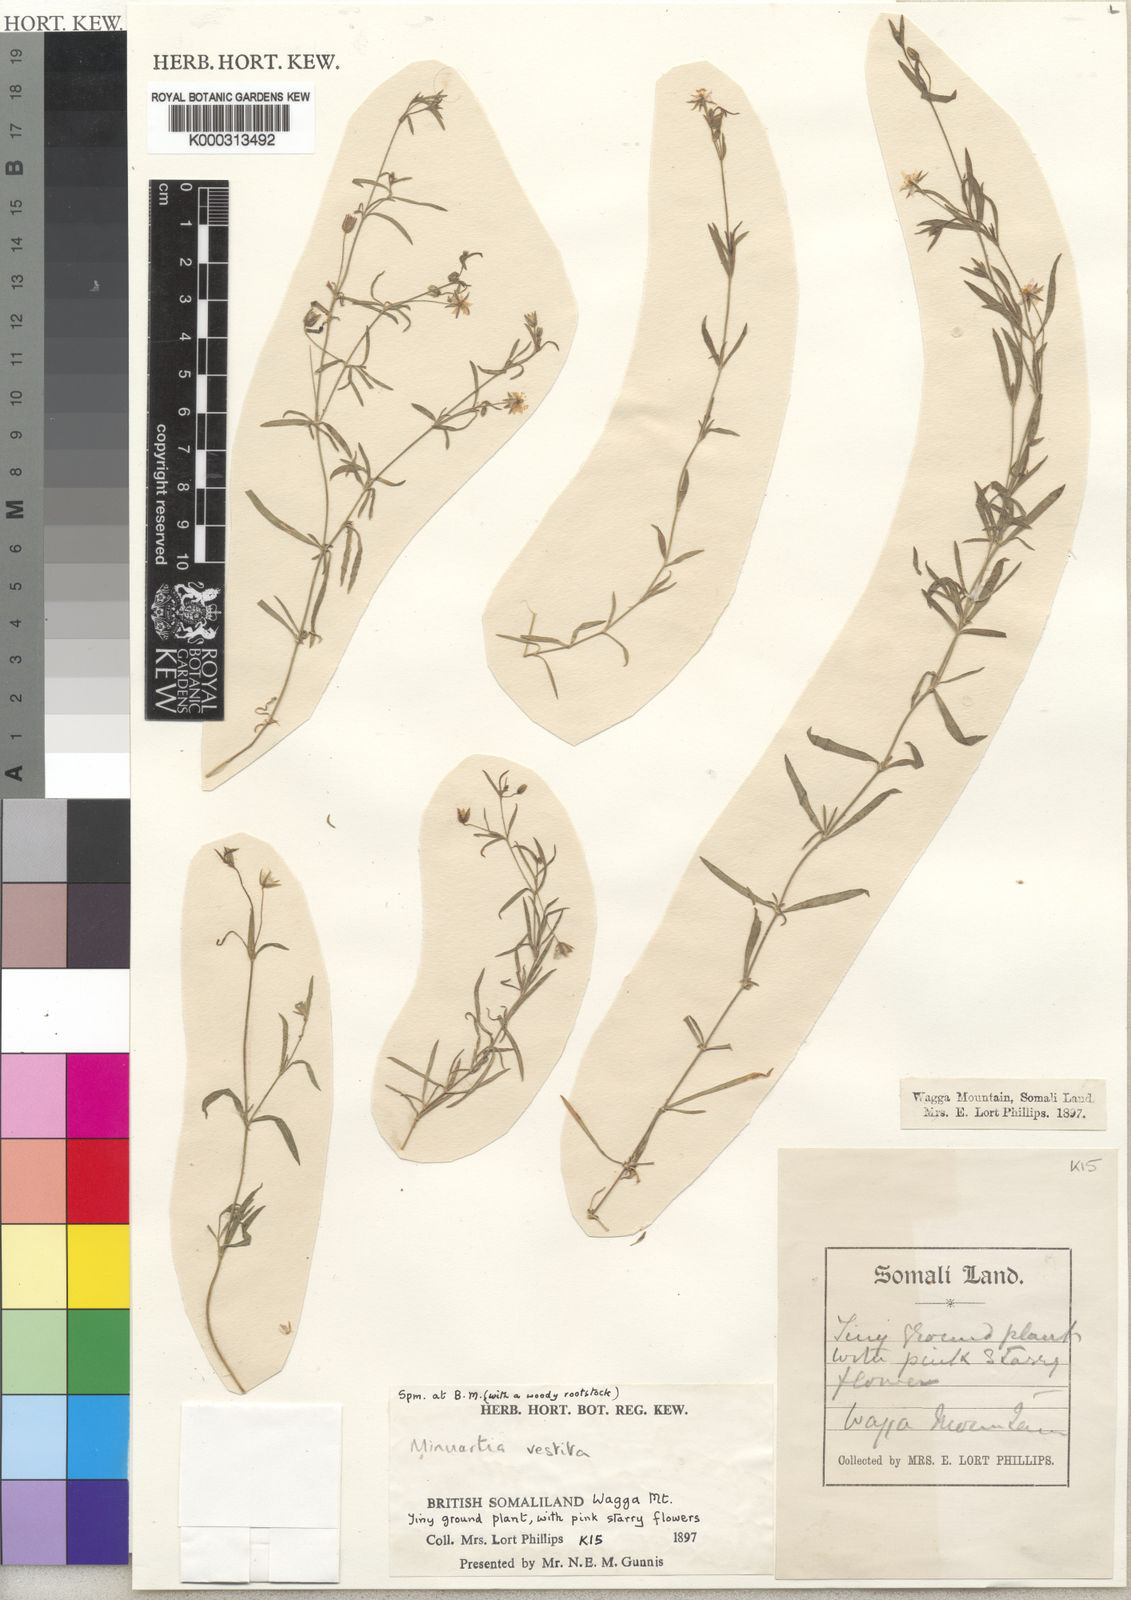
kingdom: Plantae
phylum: Tracheophyta
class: Magnoliopsida
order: Caryophyllales
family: Caryophyllaceae
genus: Rhodalsine
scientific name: Rhodalsine geniculata
